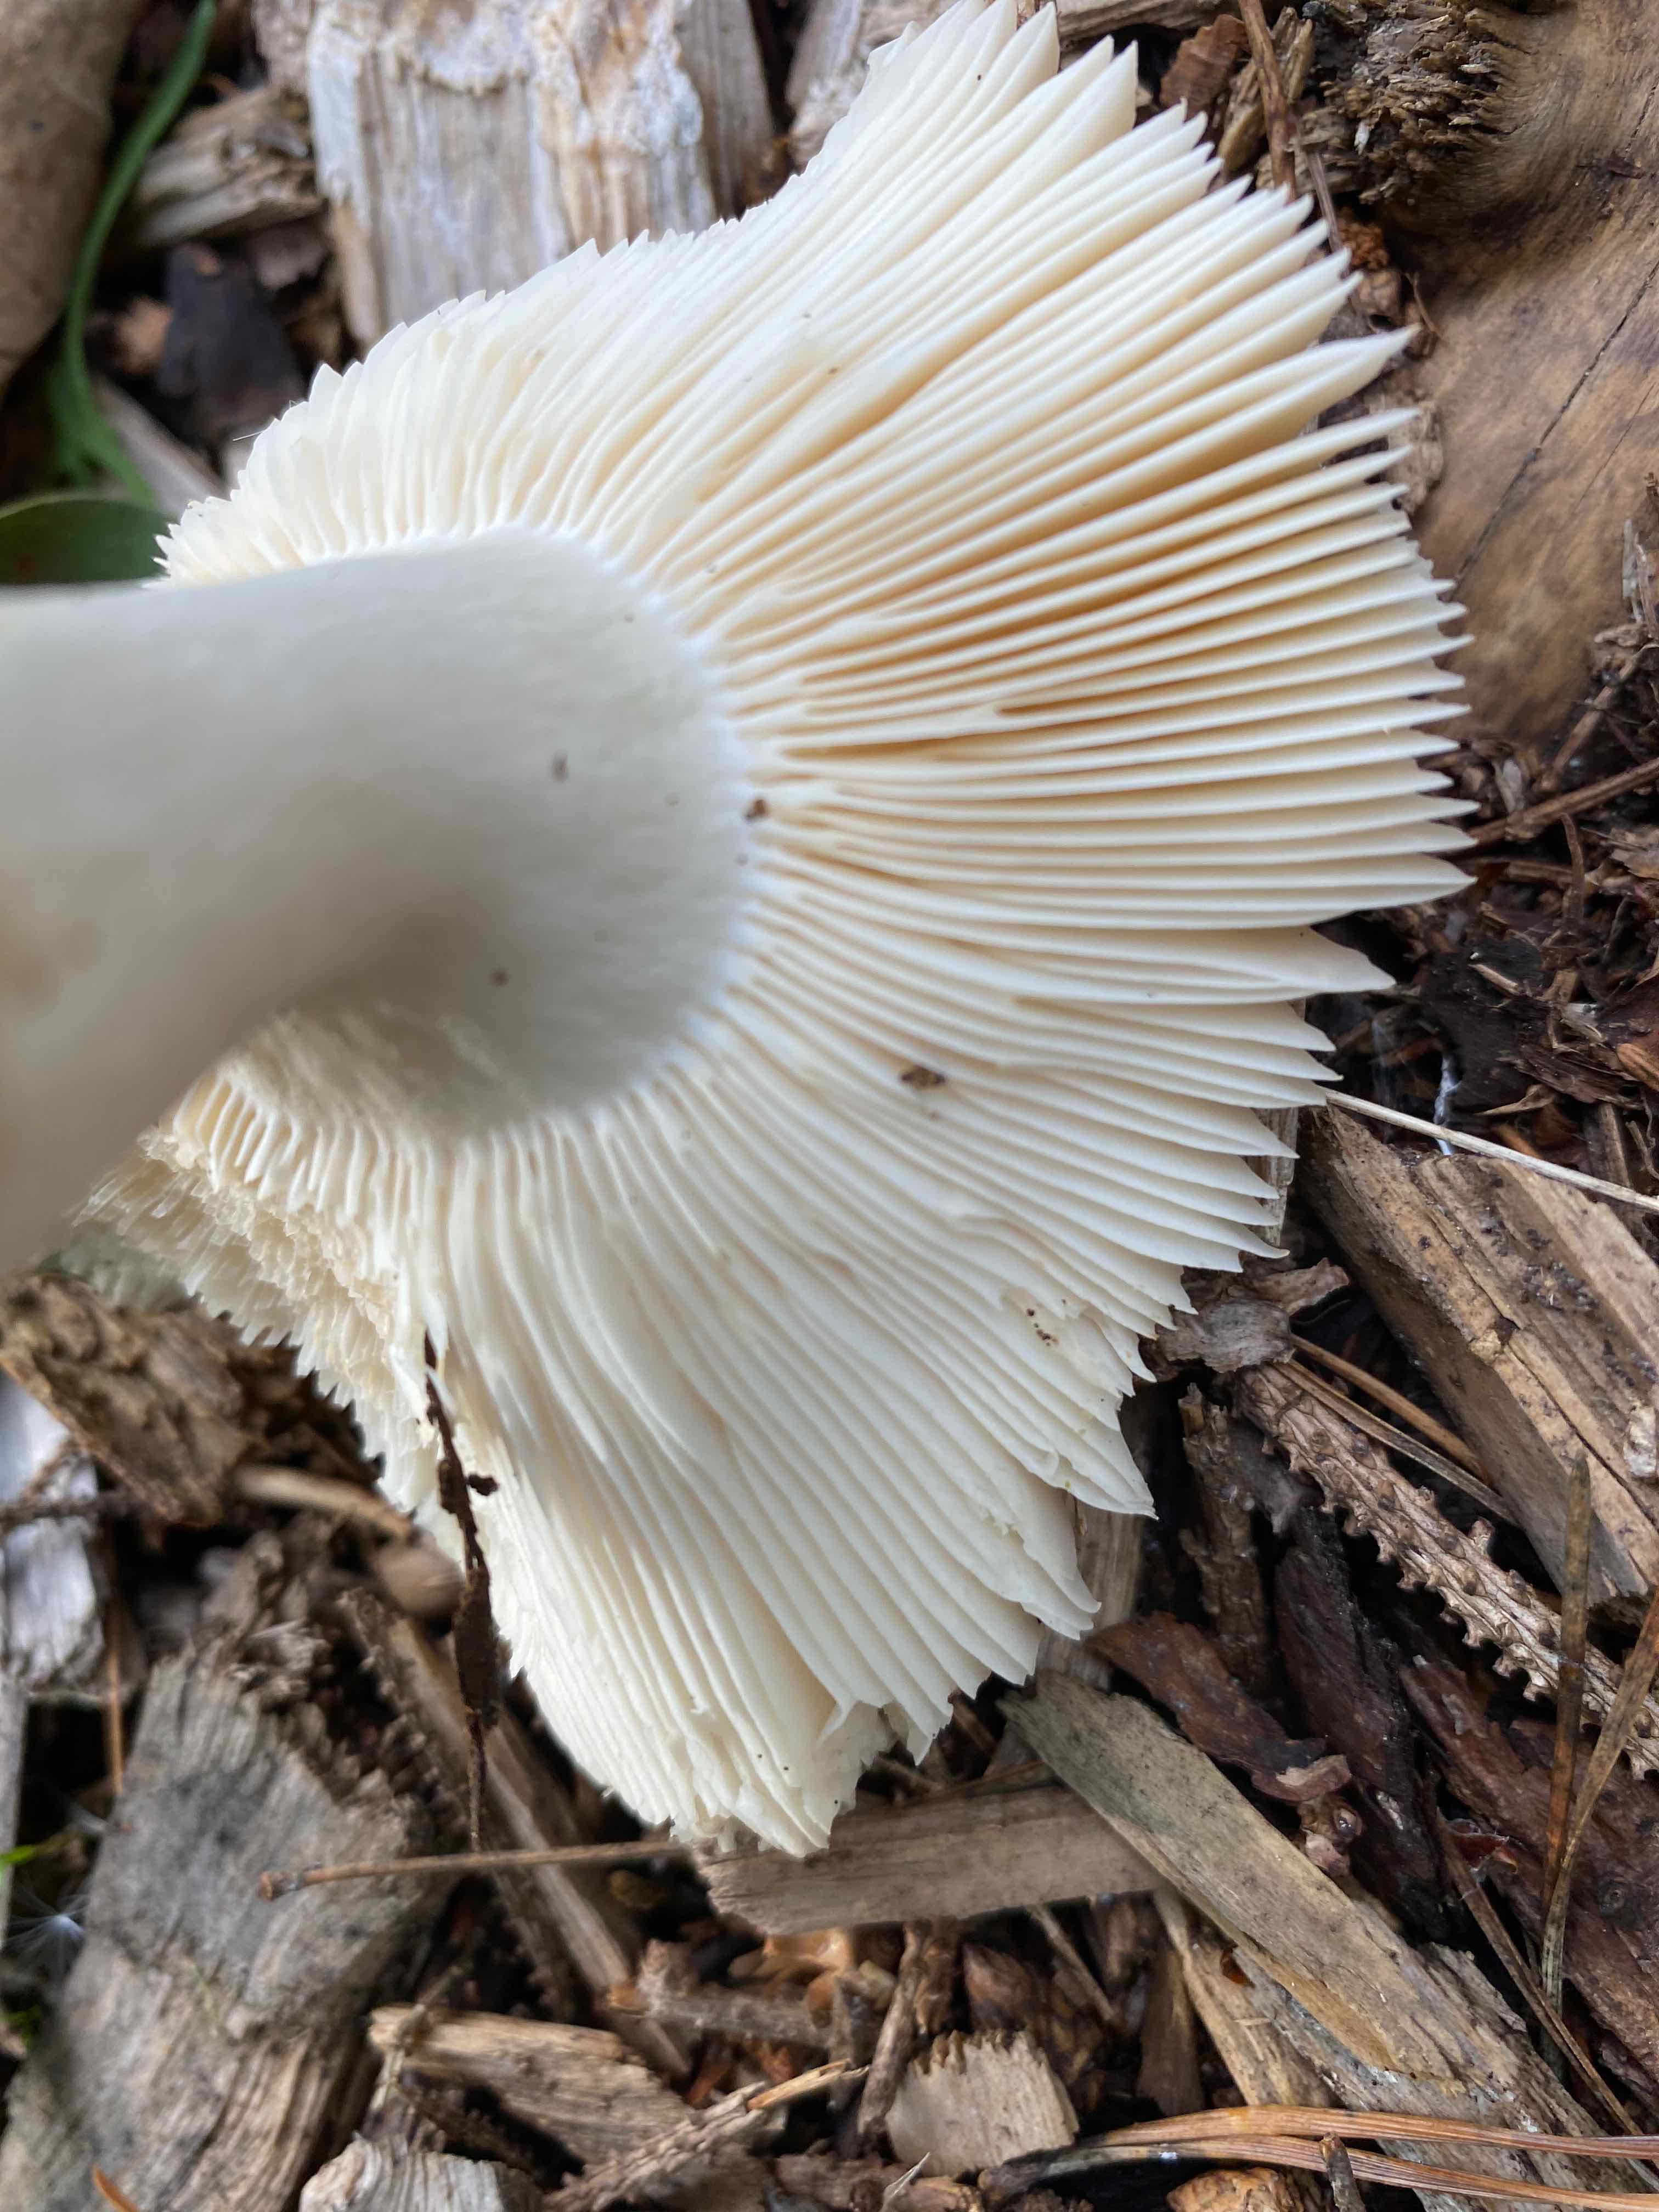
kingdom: Fungi
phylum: Basidiomycota
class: Agaricomycetes
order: Russulales
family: Russulaceae
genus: Russula
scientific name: Russula
